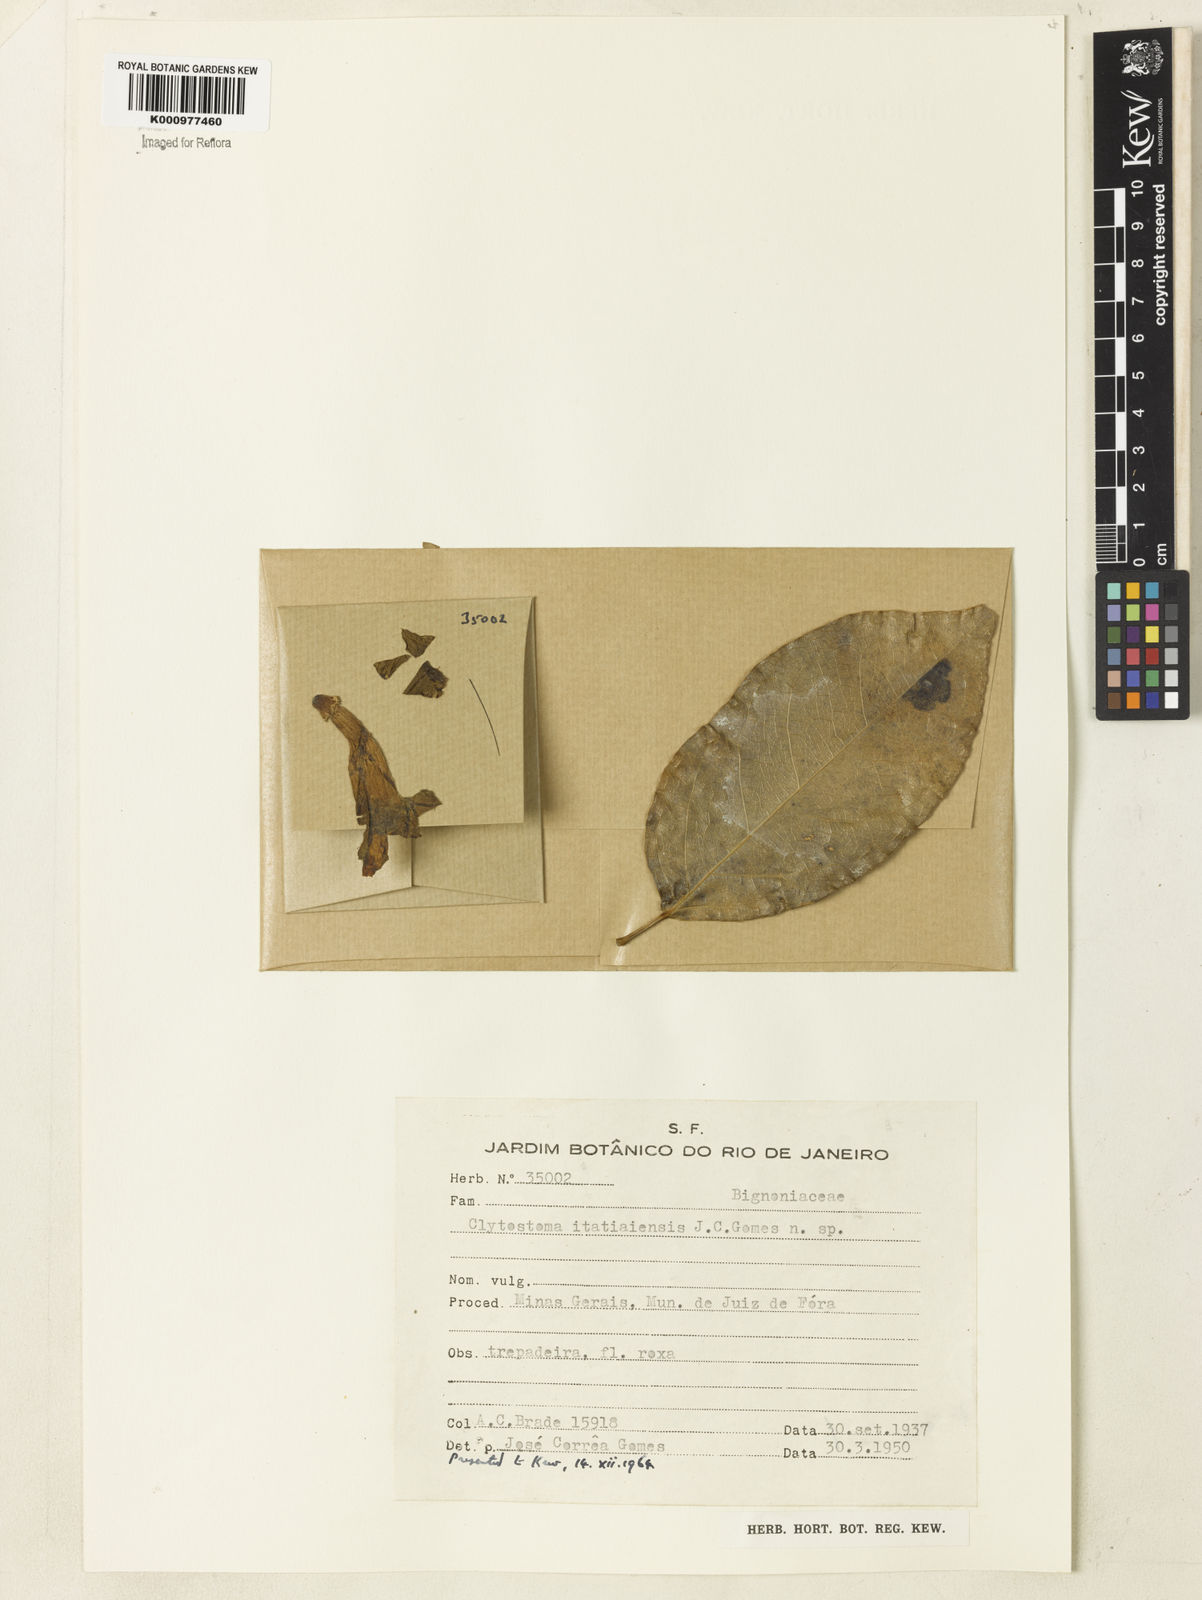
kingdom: Plantae
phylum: Tracheophyta
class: Magnoliopsida
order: Lamiales
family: Bignoniaceae
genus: Bignonia
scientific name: Bignonia
